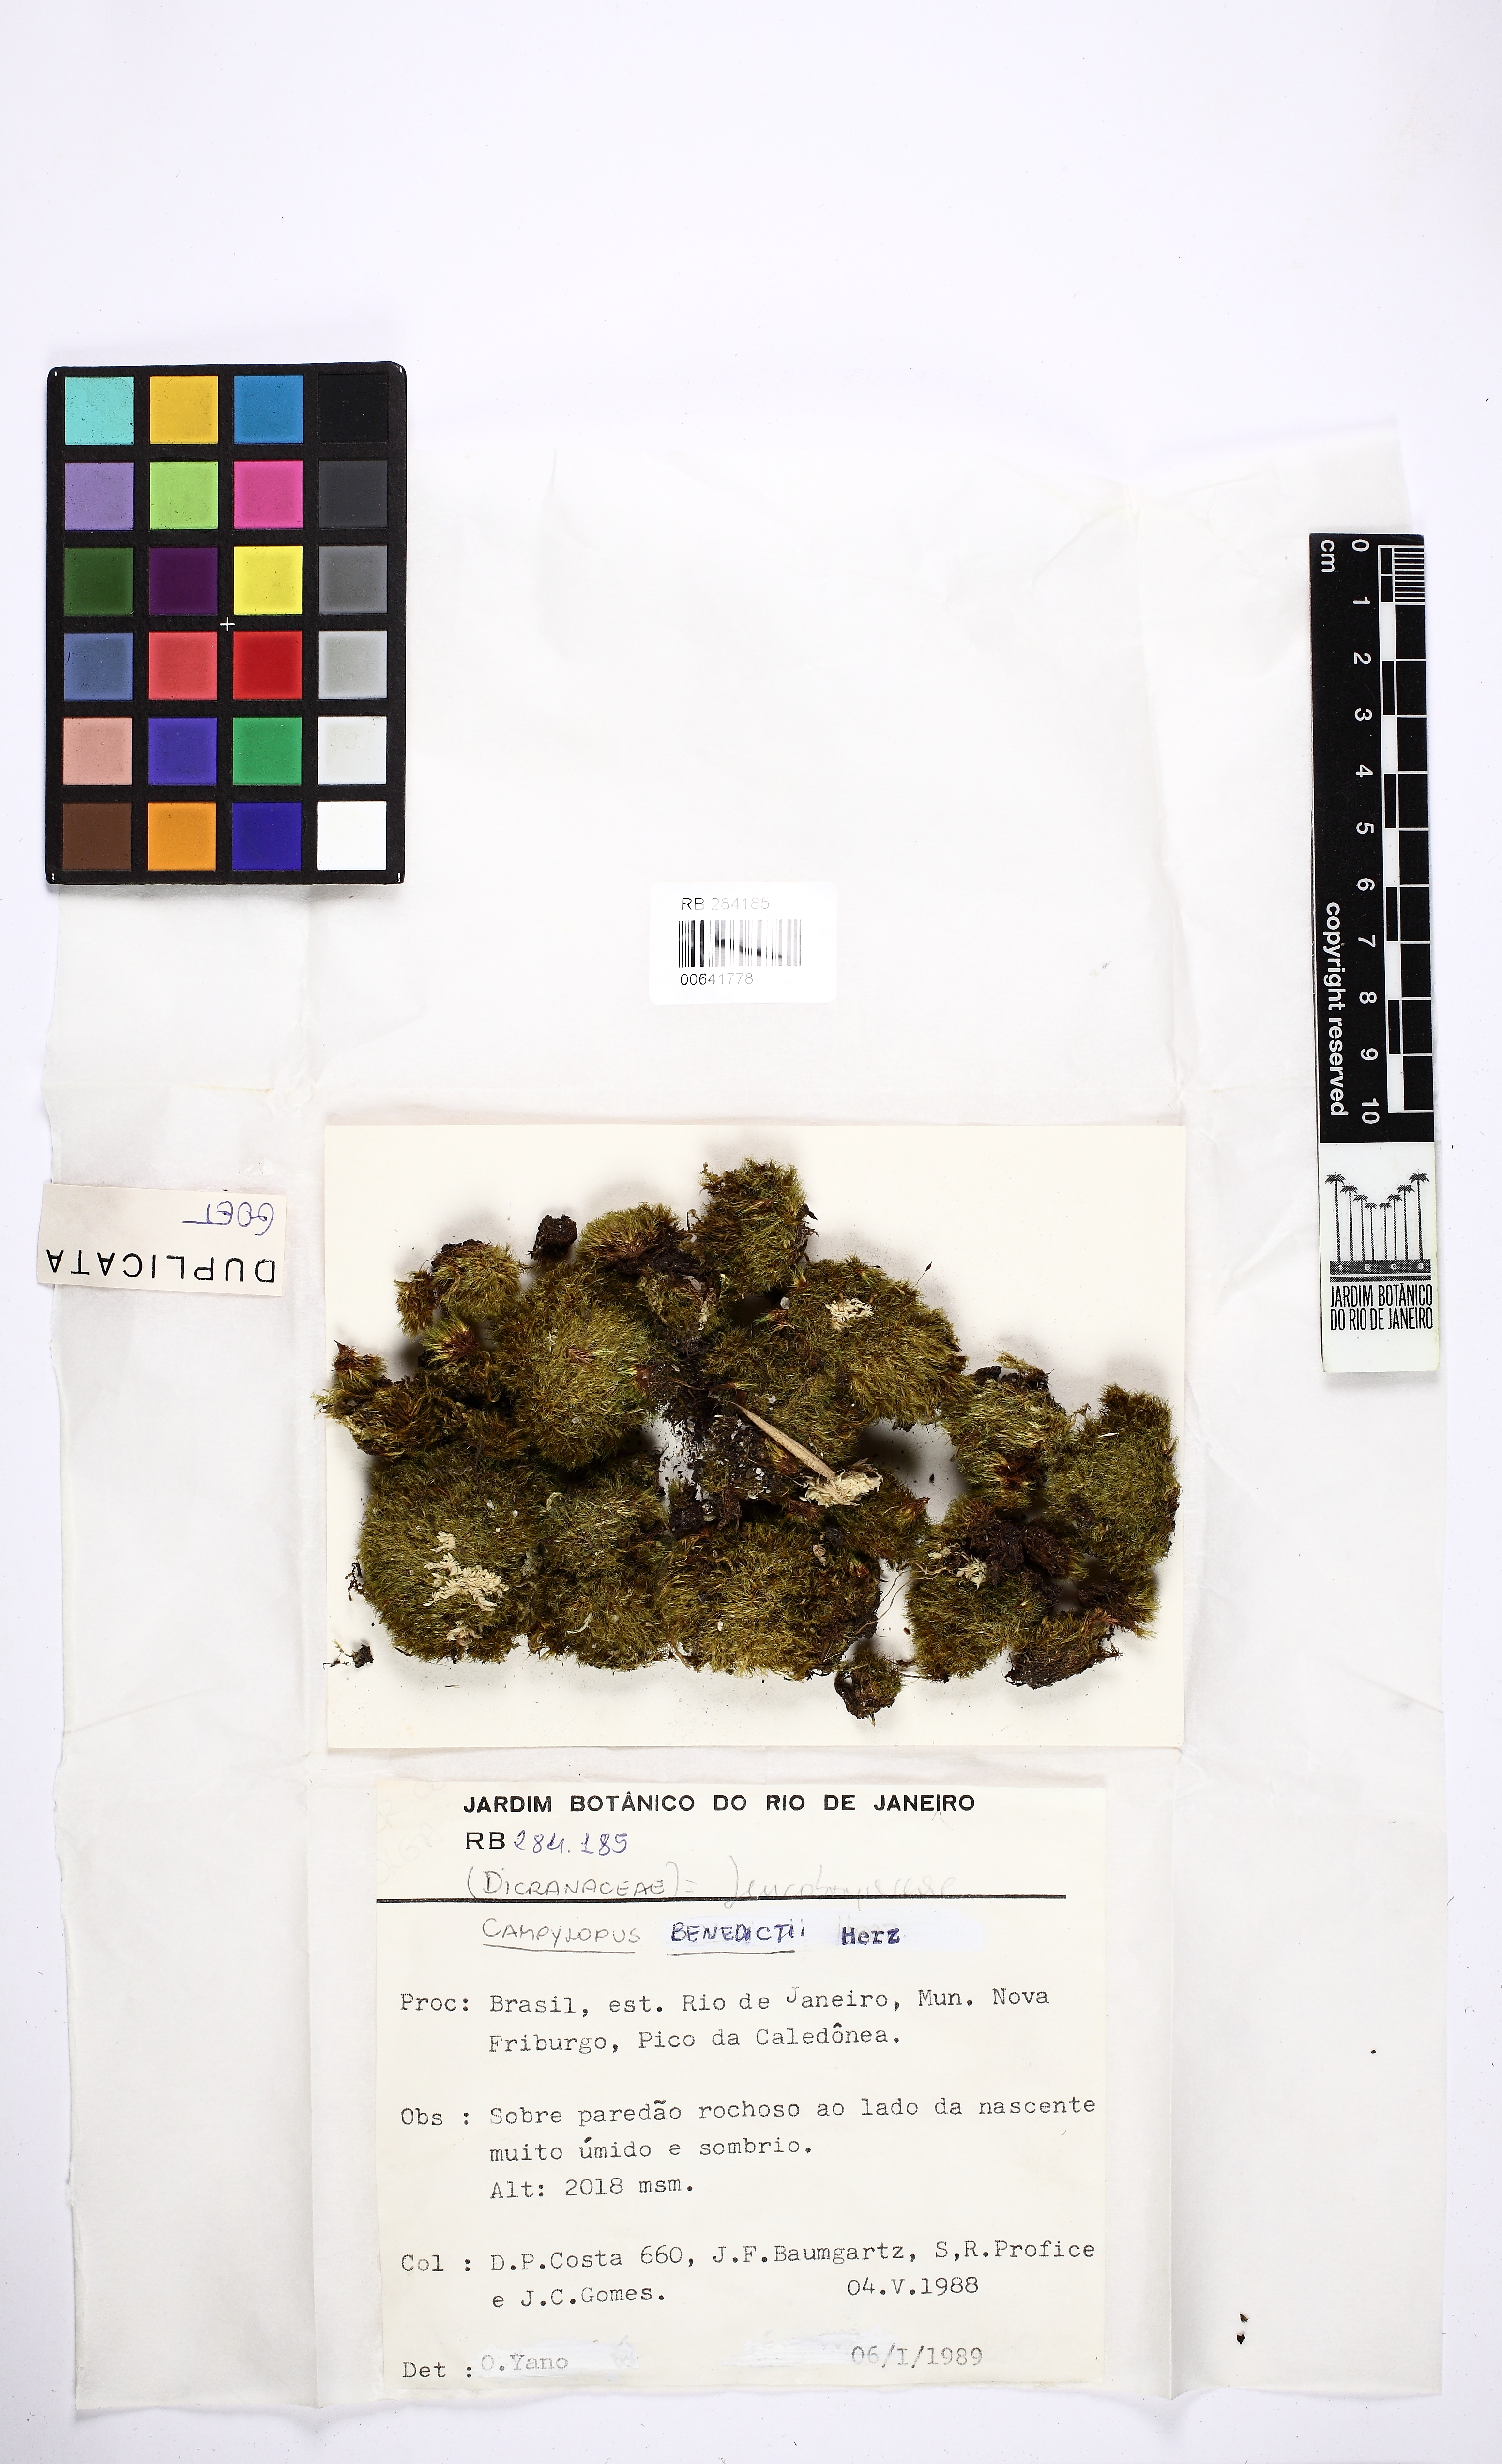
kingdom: Plantae
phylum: Bryophyta
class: Bryopsida
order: Dicranales
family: Leucobryaceae
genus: Campylopus
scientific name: Campylopus reflexisetus
